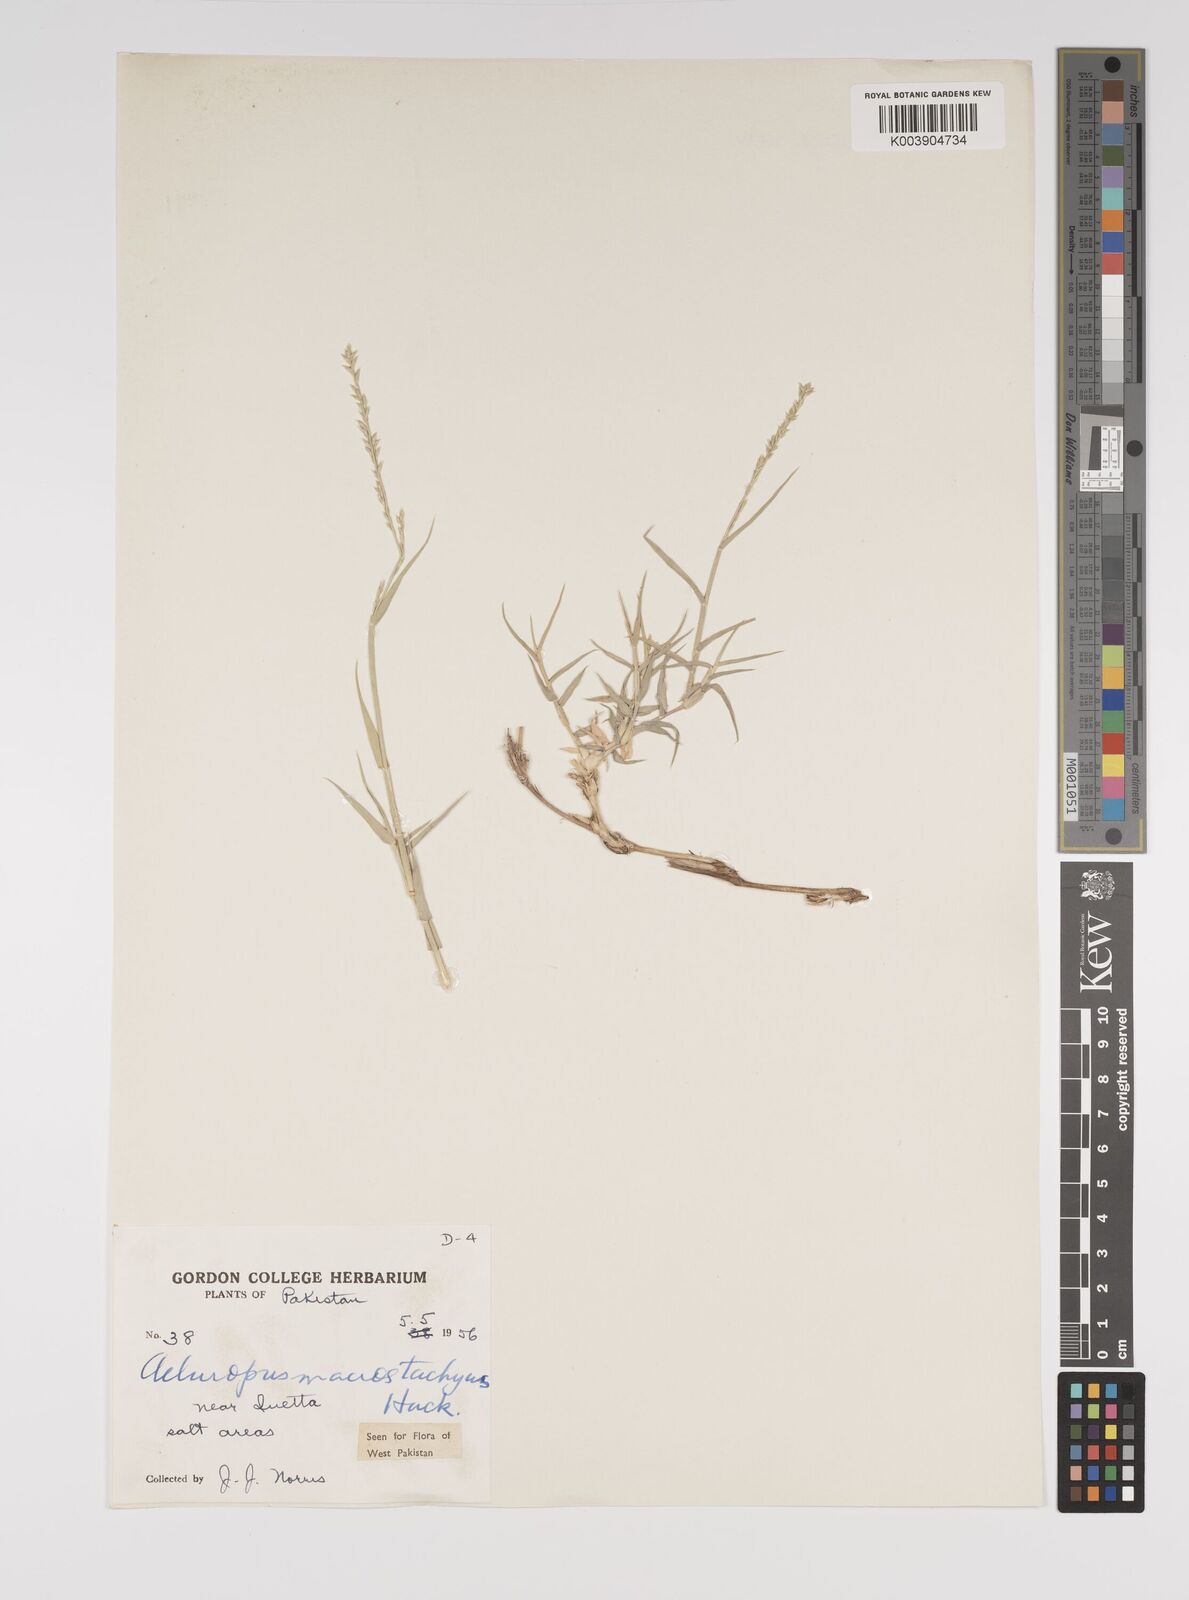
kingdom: Plantae
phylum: Tracheophyta
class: Liliopsida
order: Poales
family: Poaceae
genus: Aeluropus
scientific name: Aeluropus macrostachyus
